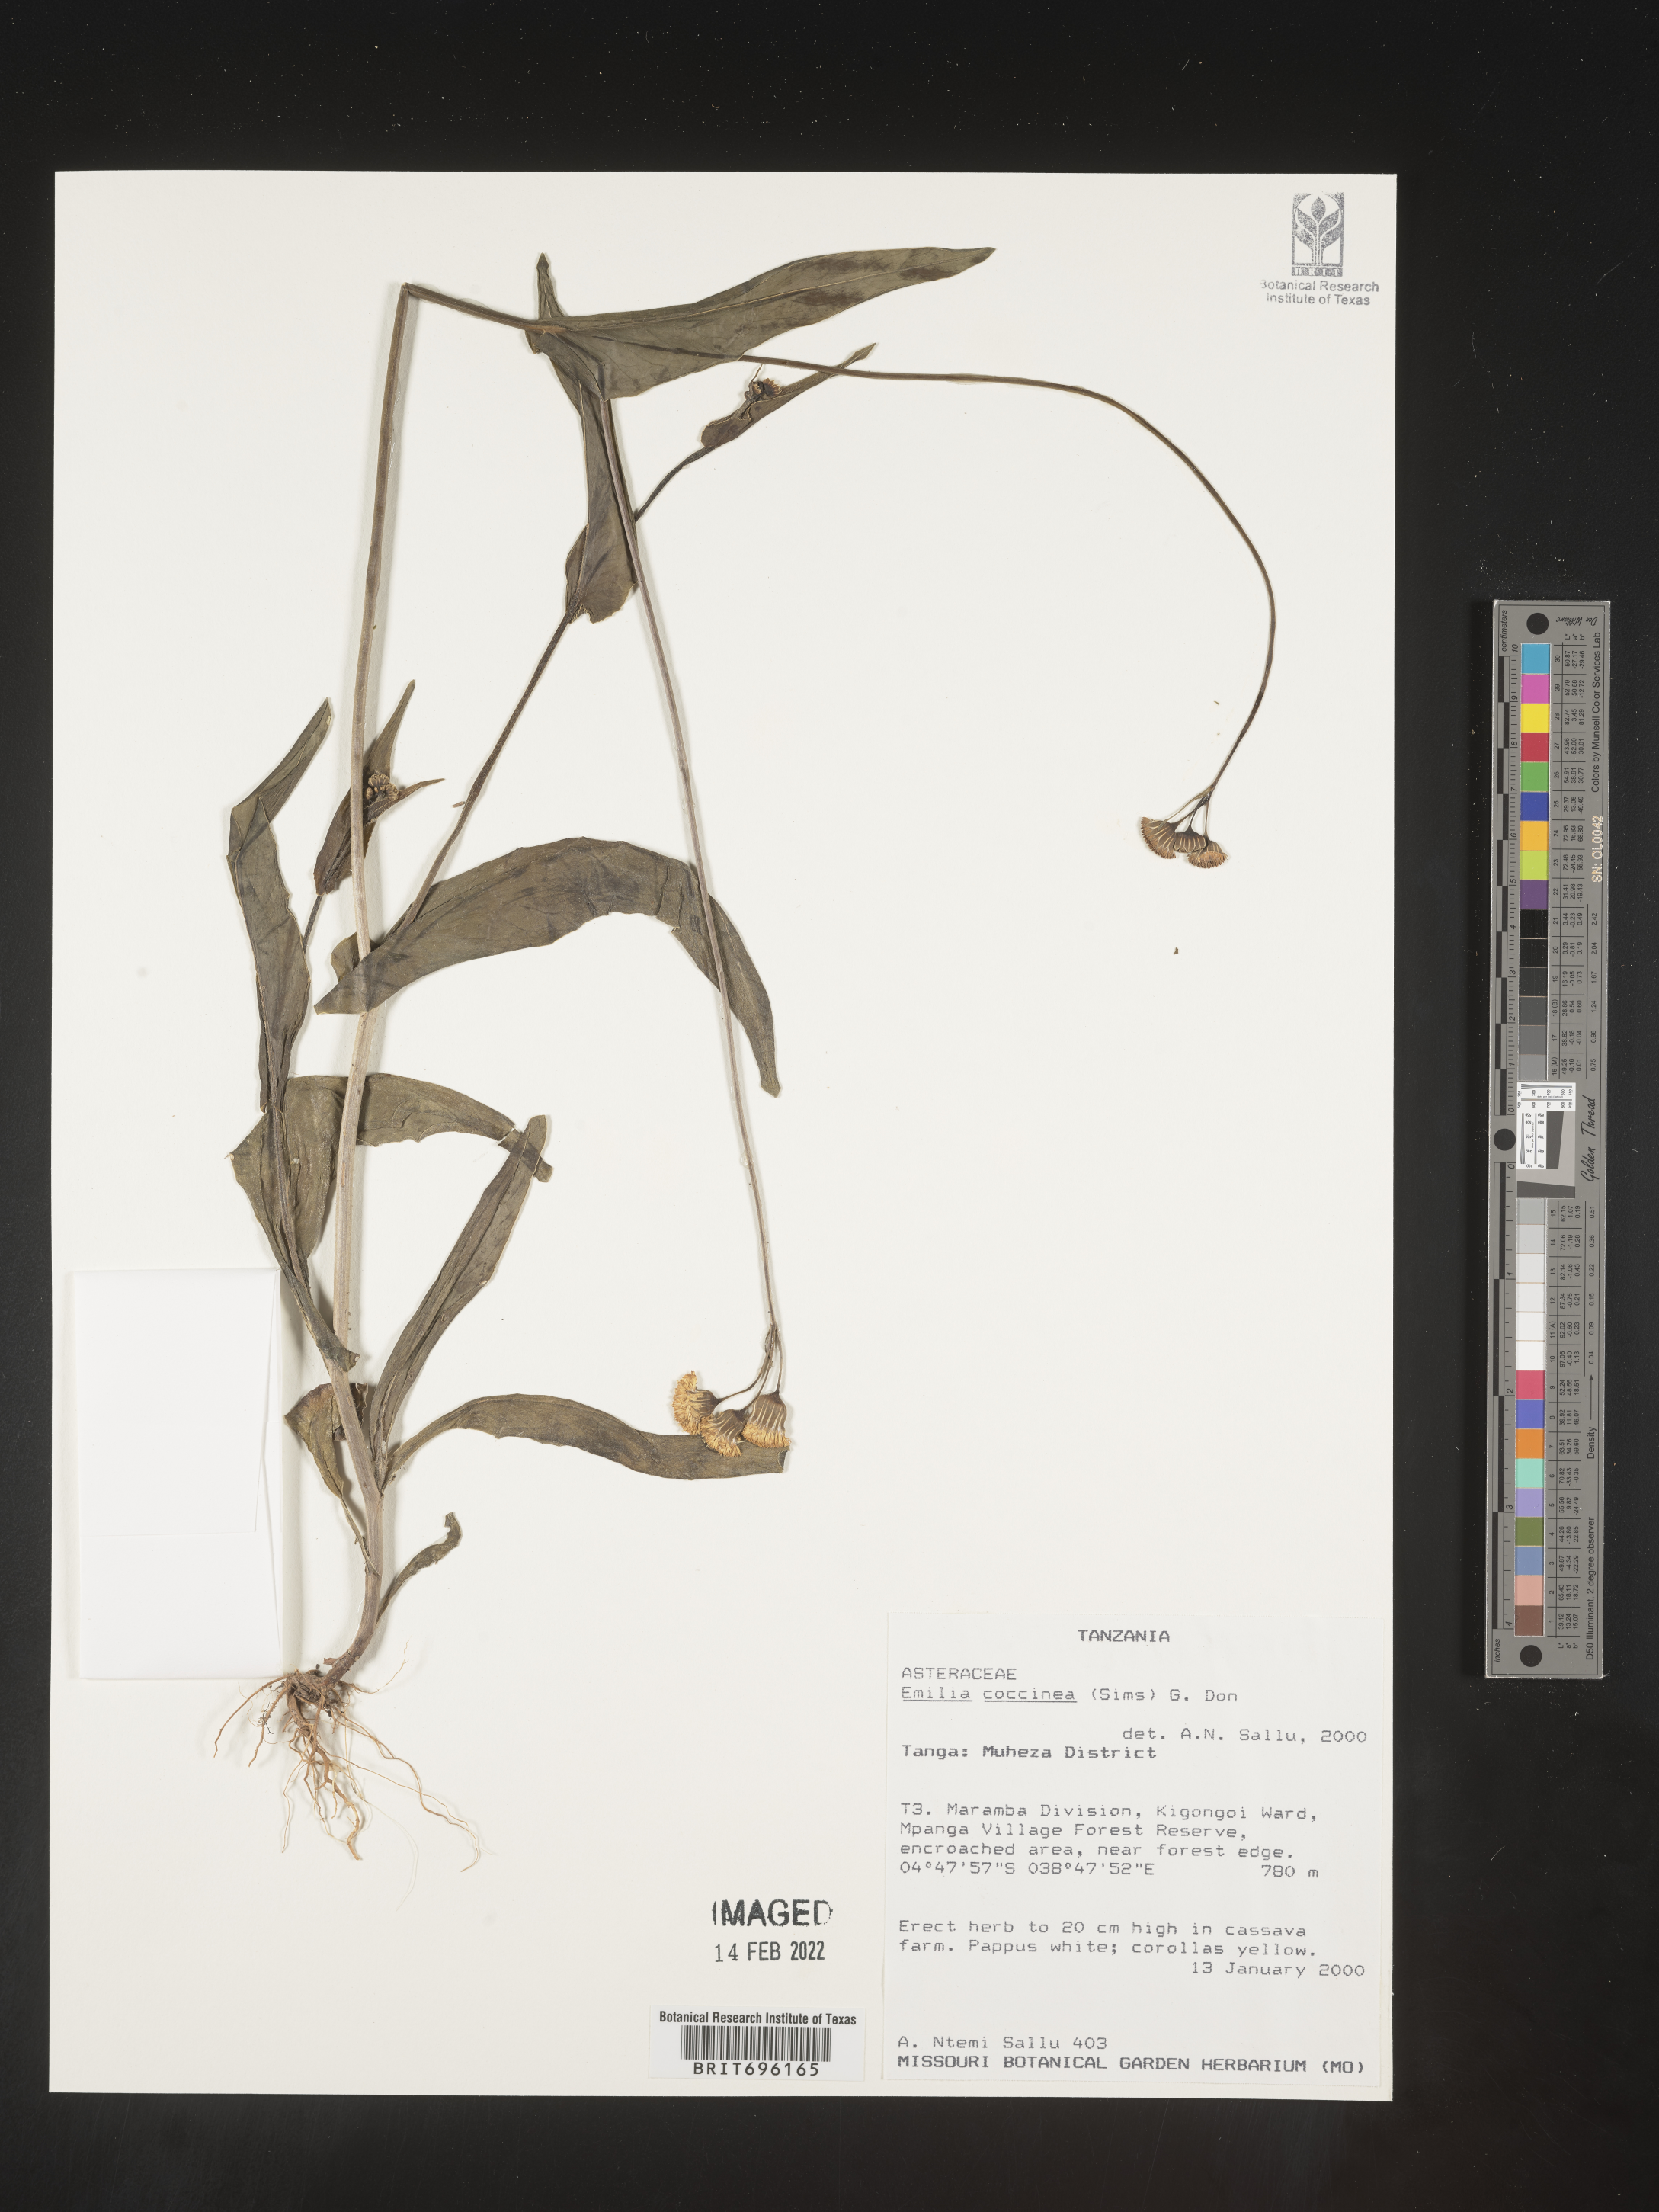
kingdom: Plantae
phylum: Tracheophyta
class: Magnoliopsida
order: Asterales
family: Asteraceae
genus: Emilia
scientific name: Emilia
